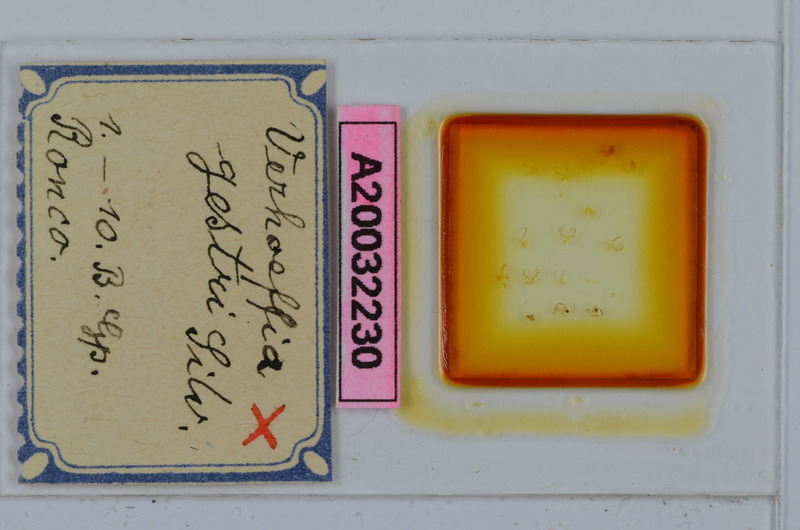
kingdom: Animalia
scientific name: Animalia
